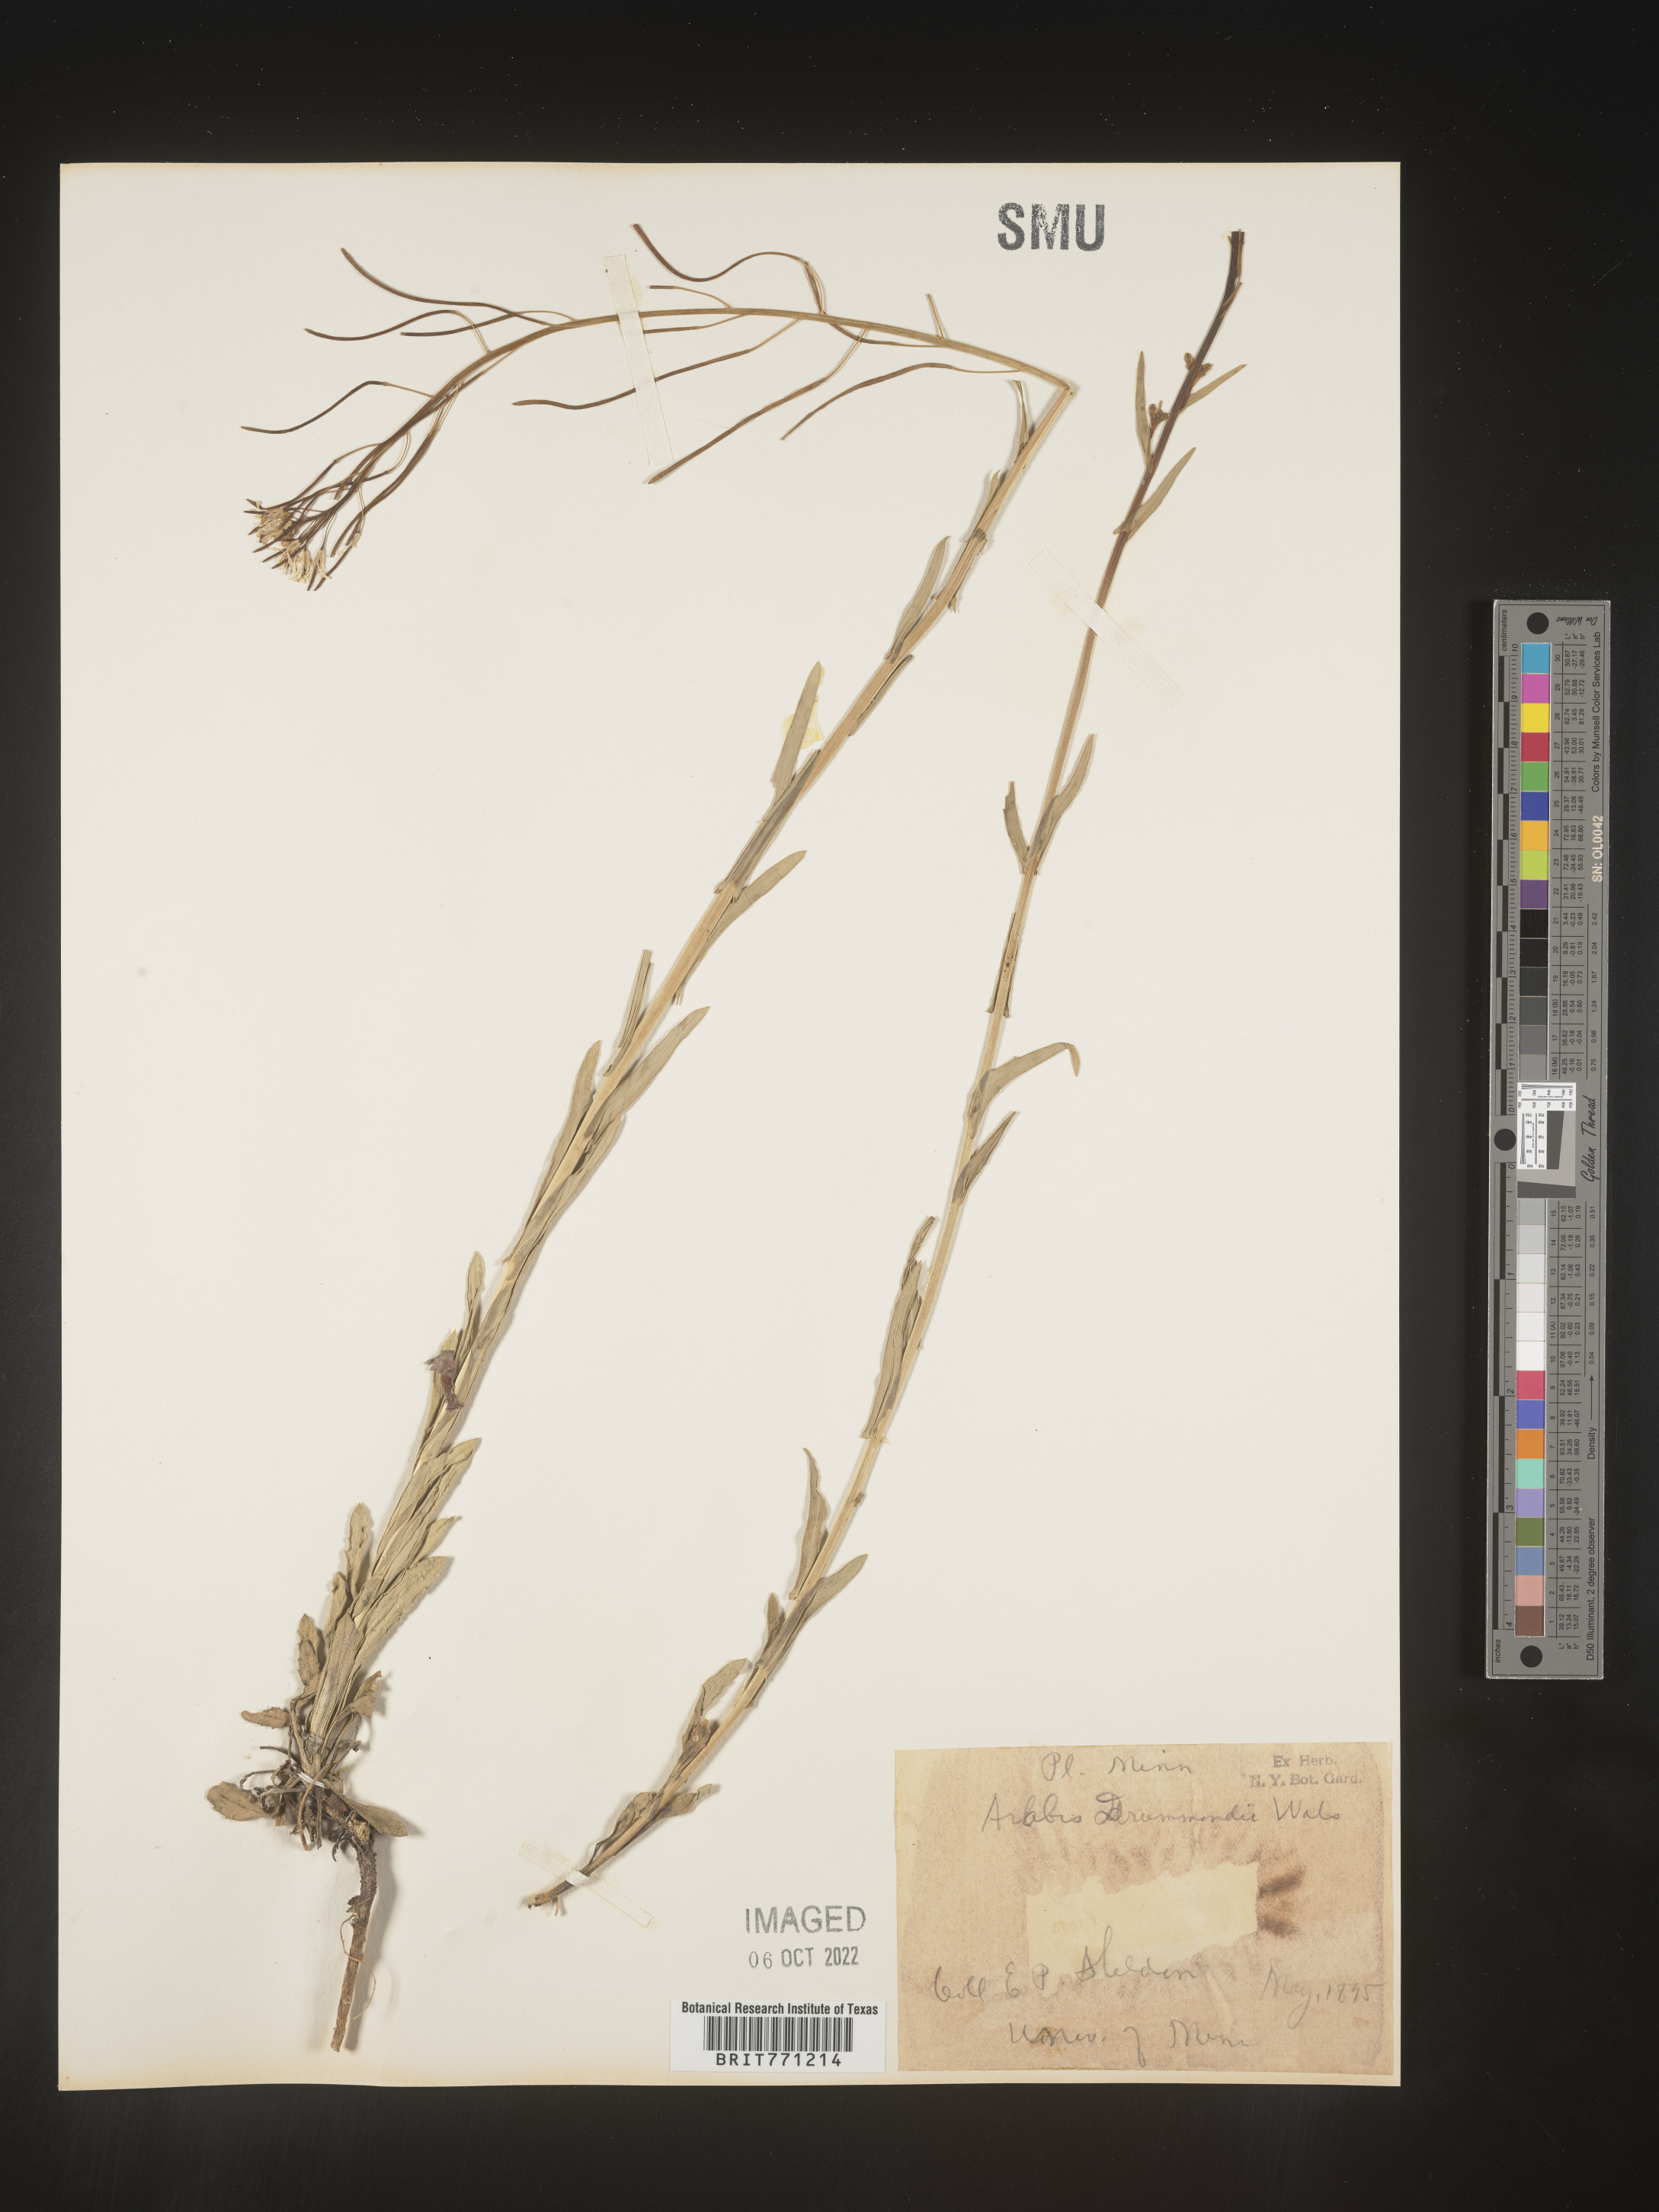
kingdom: Plantae
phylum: Tracheophyta
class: Magnoliopsida
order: Brassicales
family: Brassicaceae
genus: Boechera
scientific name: Boechera stricta
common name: Canadian rockcress
